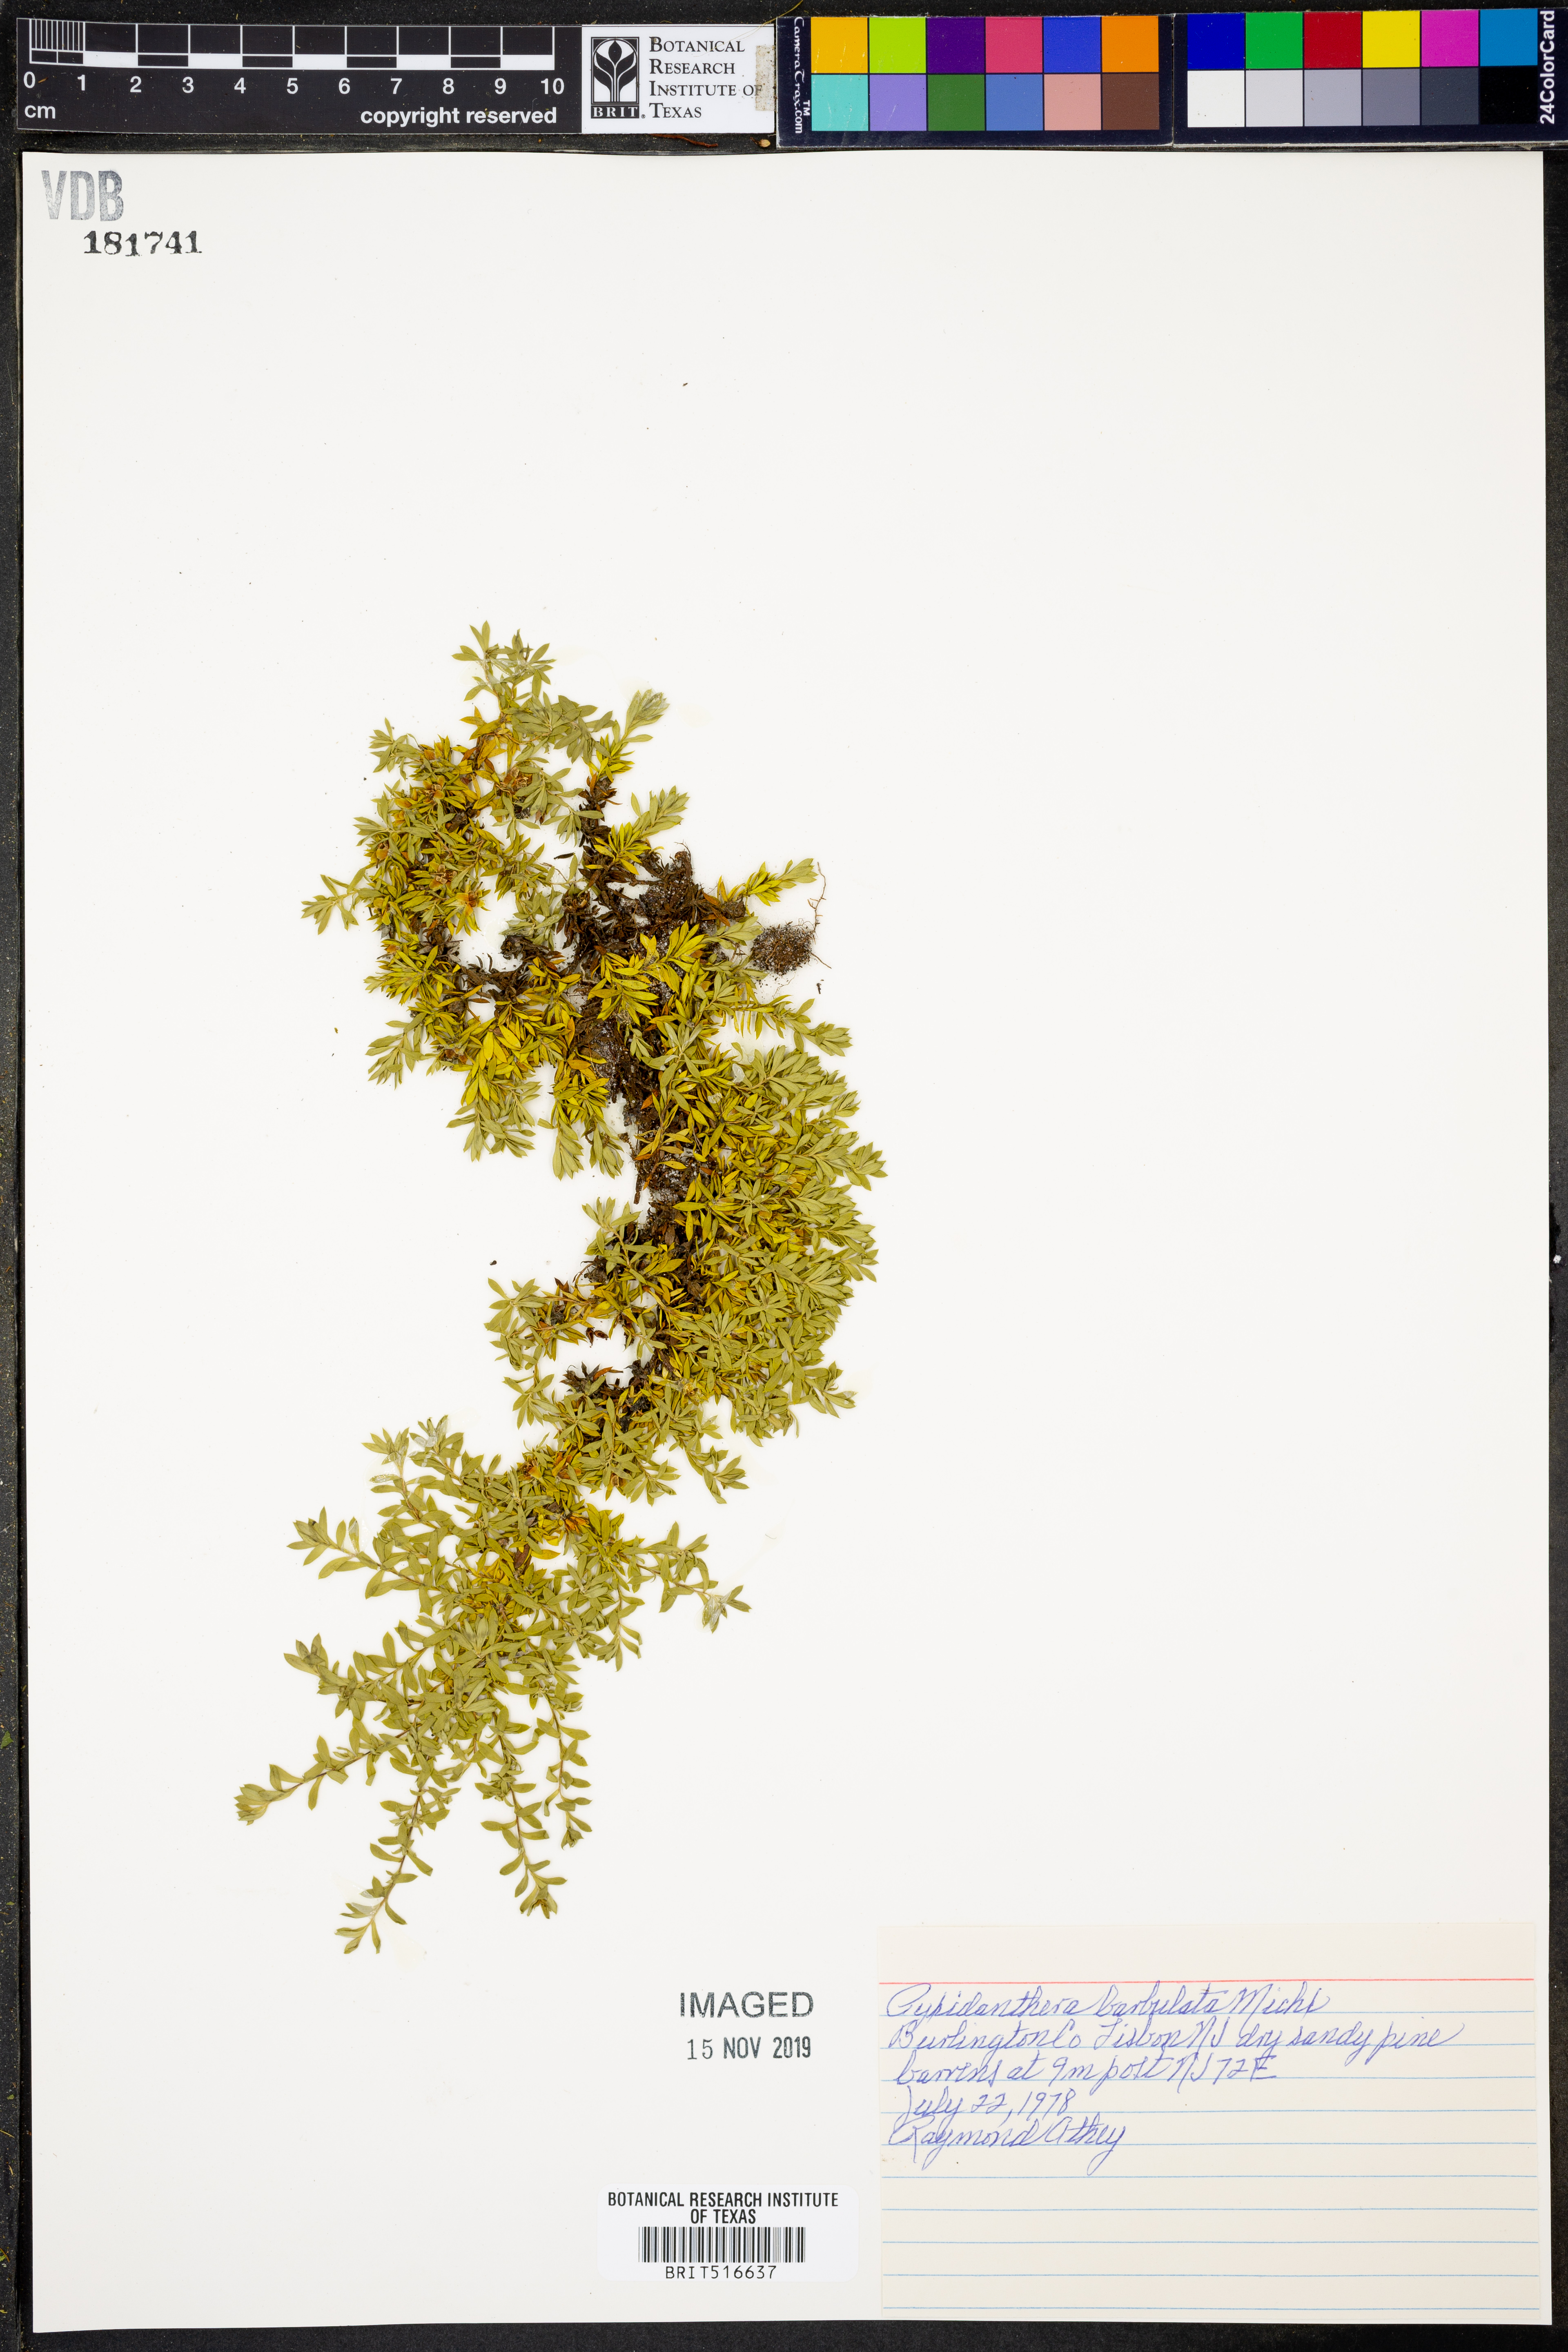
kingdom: Plantae
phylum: Tracheophyta
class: Magnoliopsida
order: Ericales
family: Diapensiaceae
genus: Pyxidanthera
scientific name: Pyxidanthera barbulata
